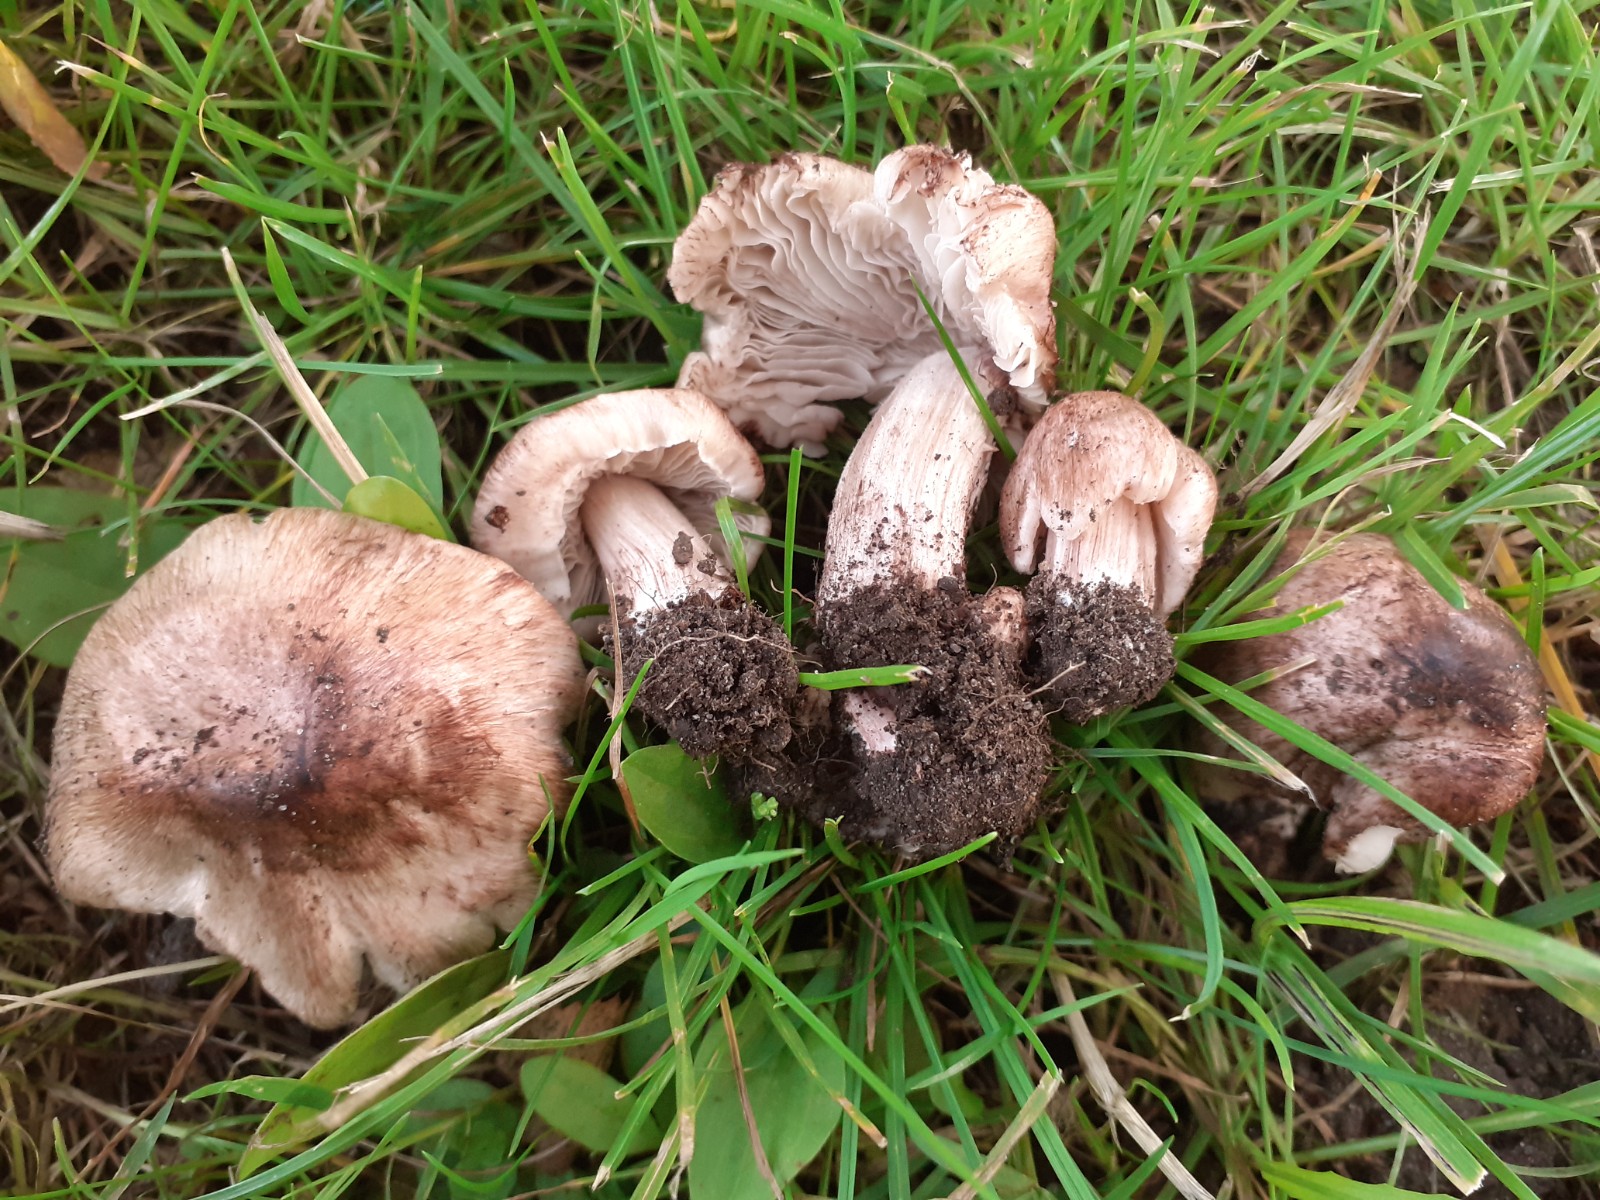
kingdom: Fungi
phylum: Basidiomycota
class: Agaricomycetes
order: Agaricales
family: Inocybaceae
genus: Inosperma
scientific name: Inosperma adaequatum
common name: vinrød trævlhat
